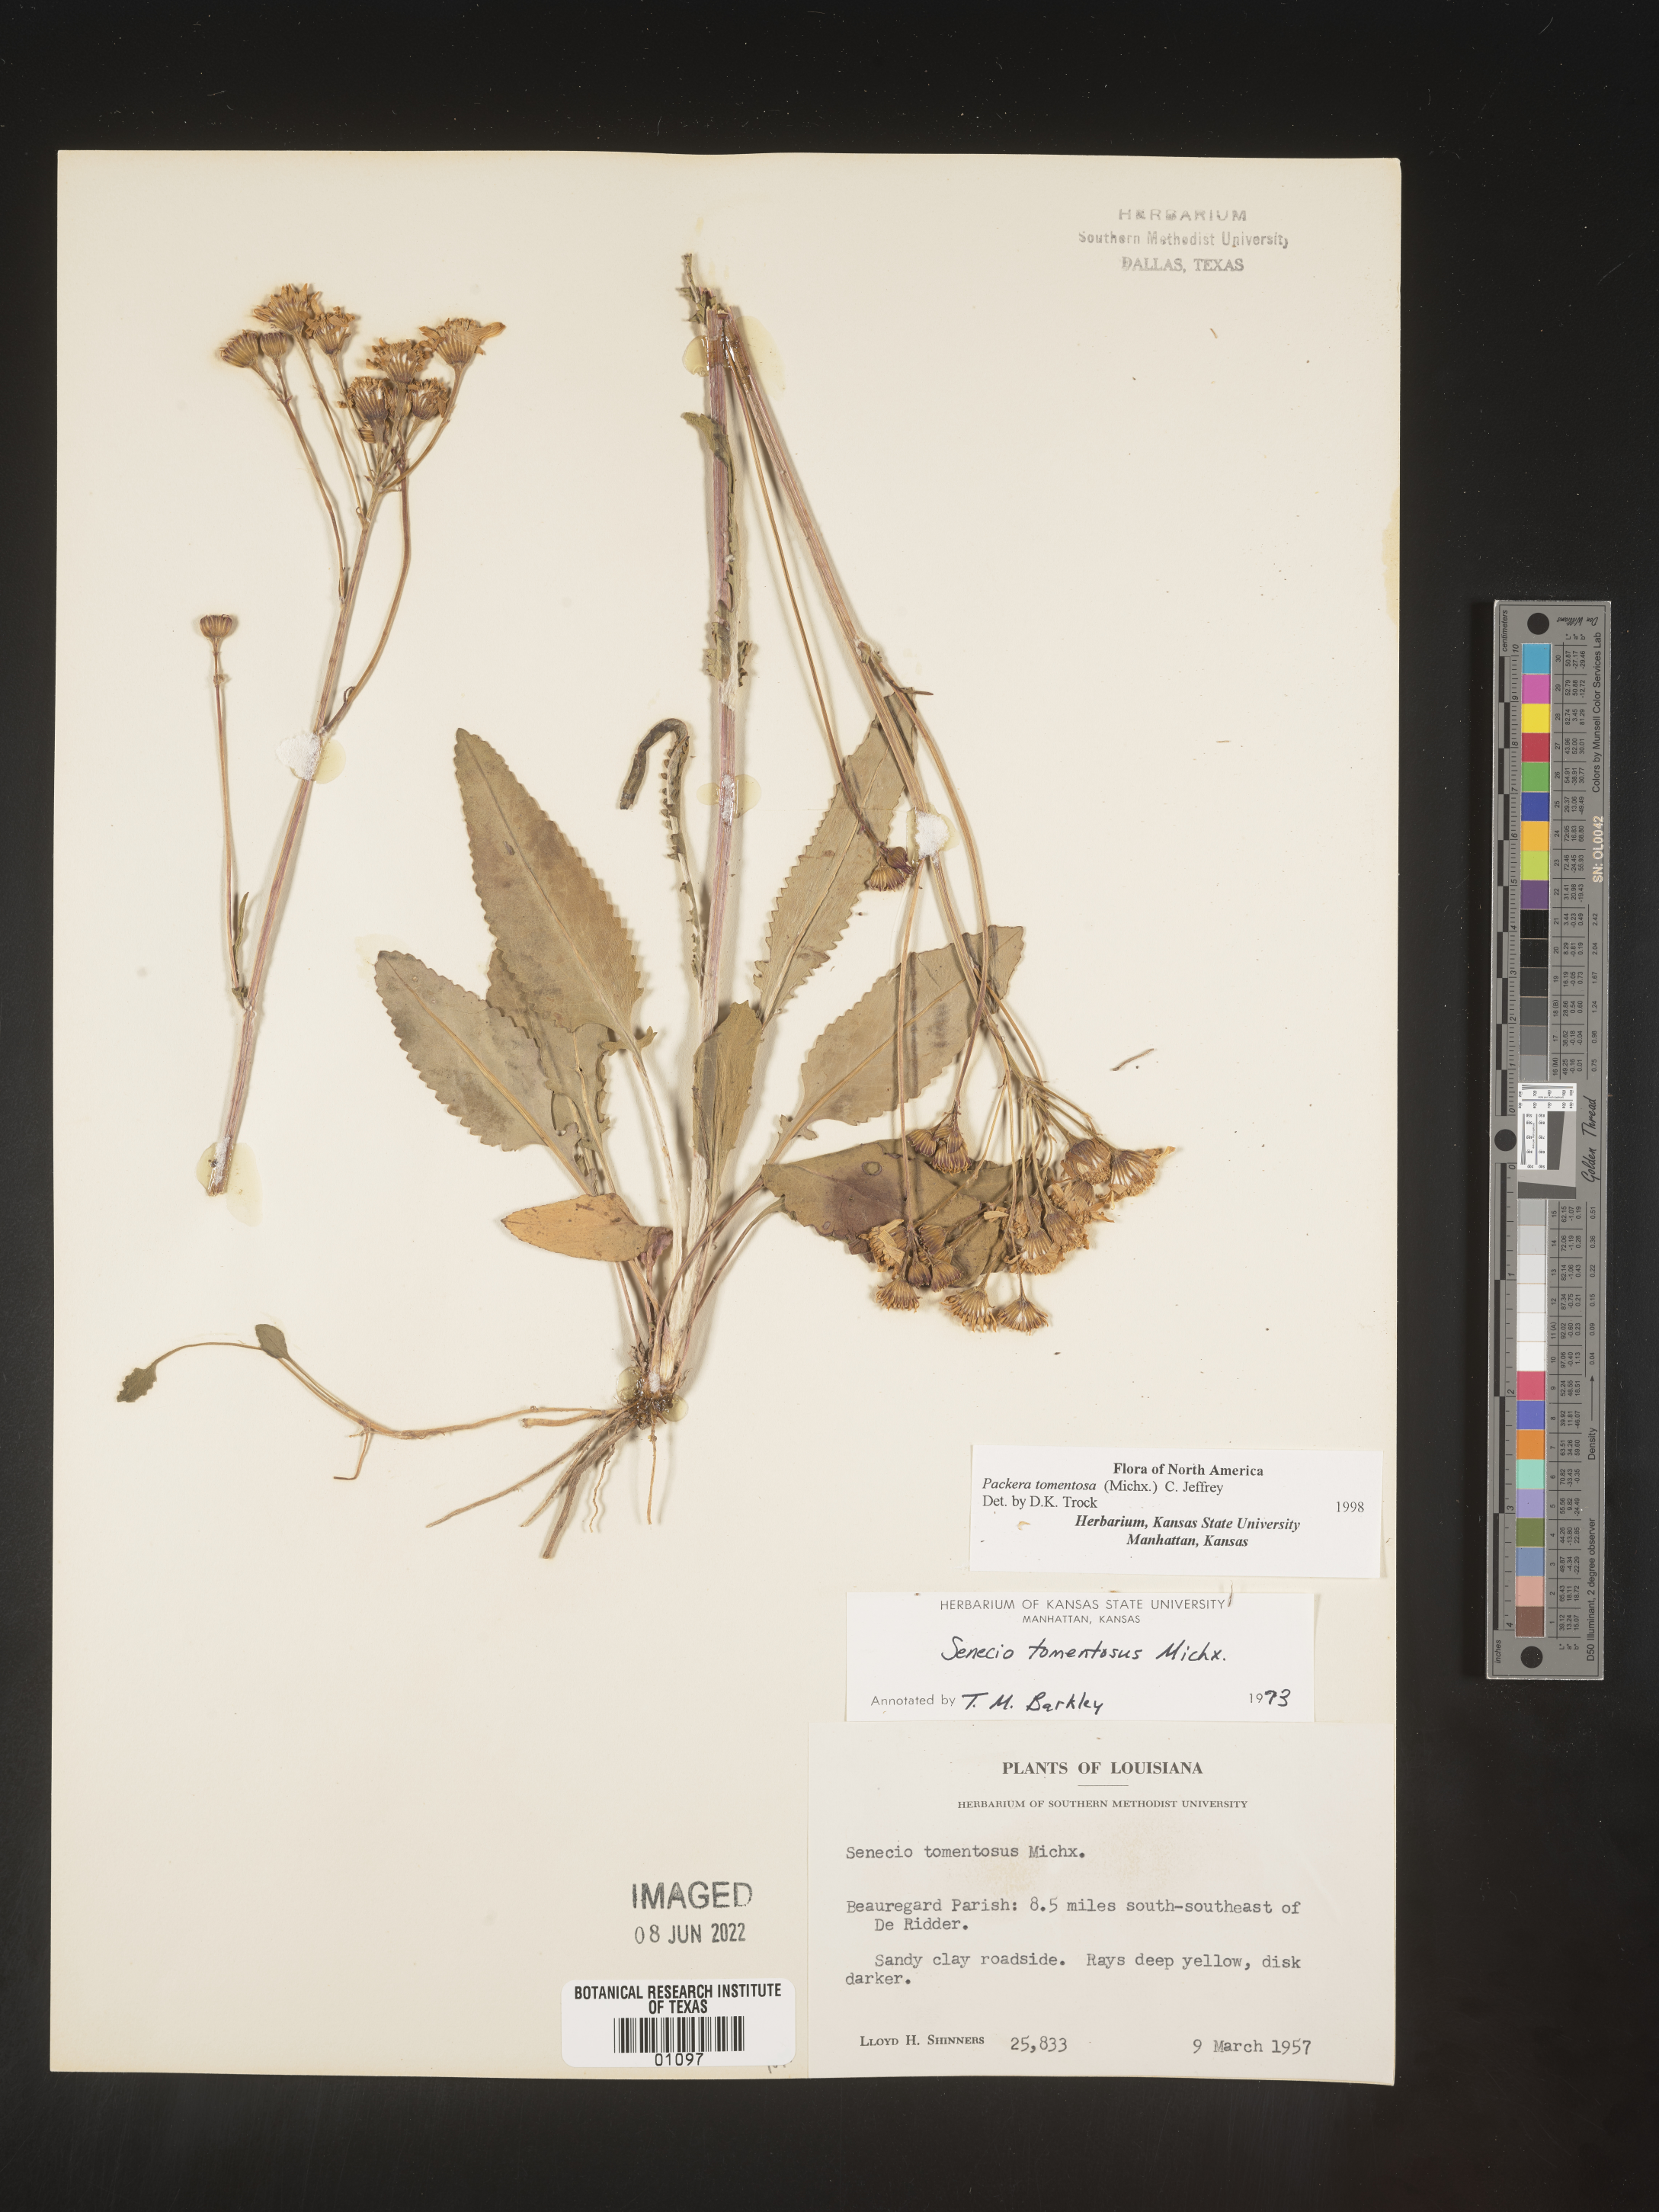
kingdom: Plantae
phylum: Tracheophyta
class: Magnoliopsida
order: Asterales
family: Asteraceae
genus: Packera
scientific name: Packera dubia
